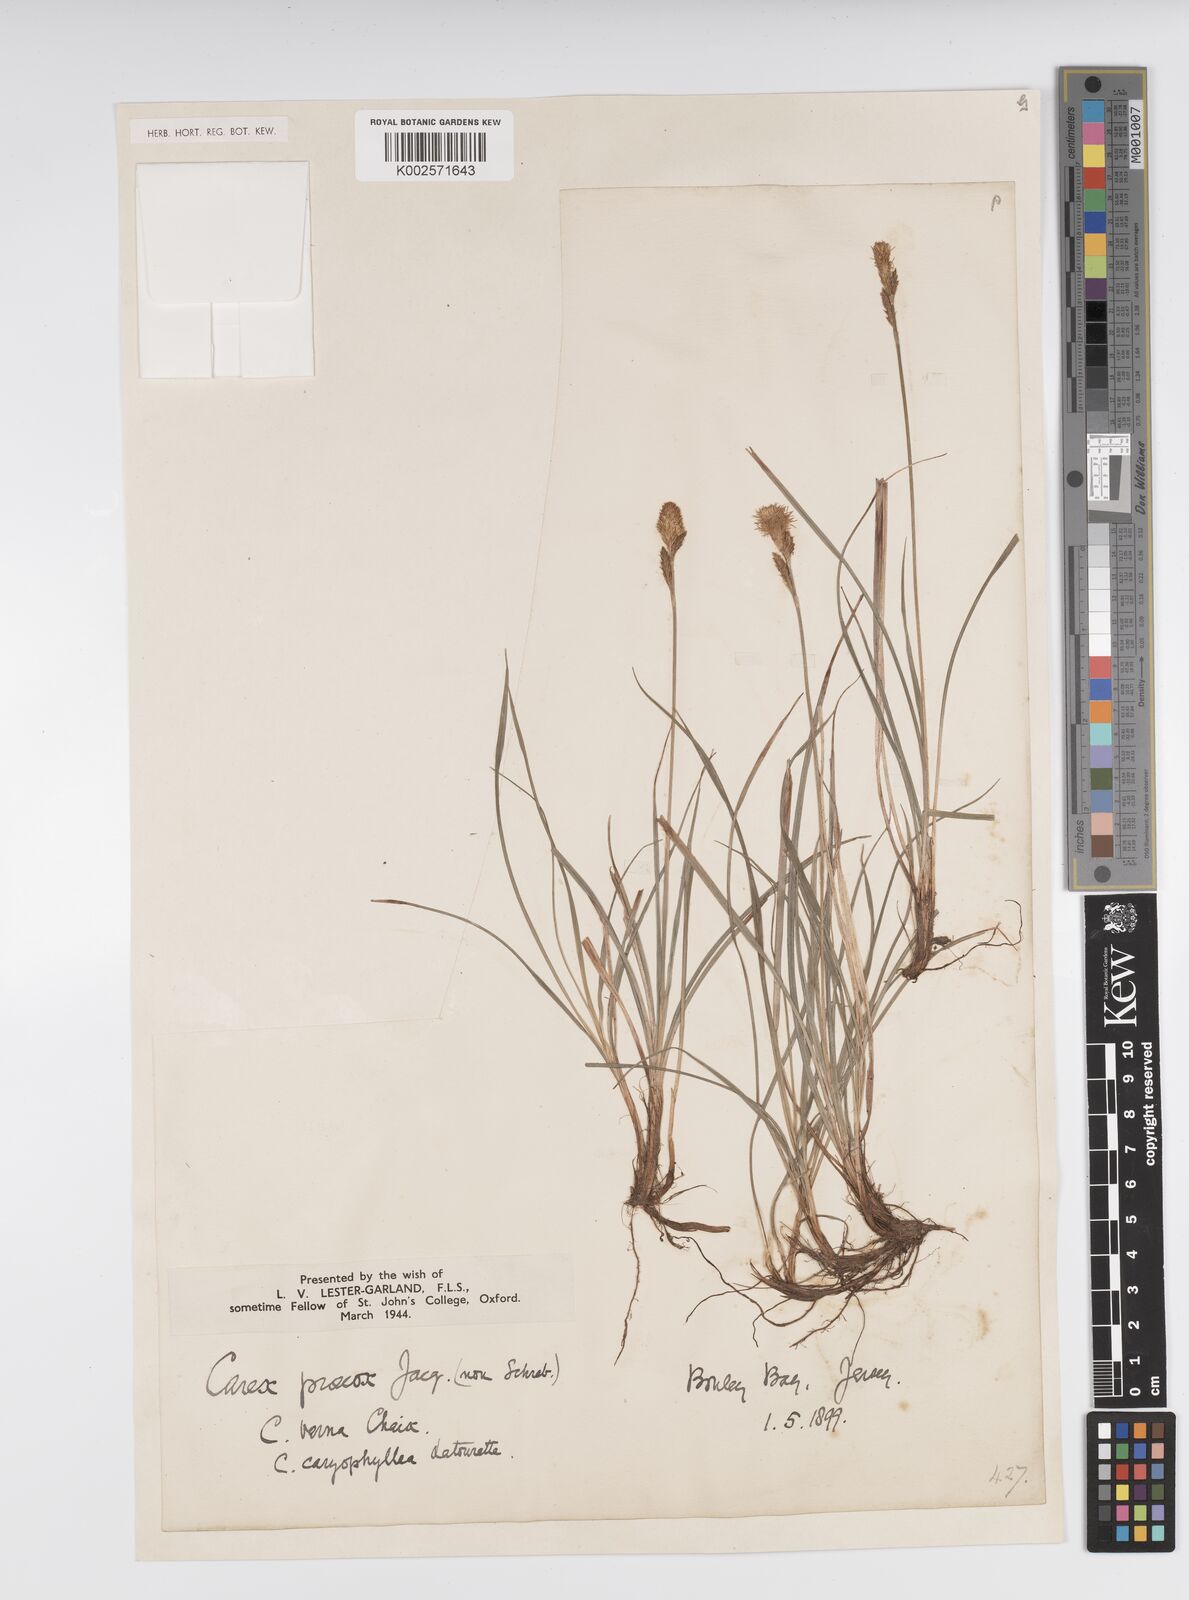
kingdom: Plantae
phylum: Tracheophyta
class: Liliopsida
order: Poales
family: Cyperaceae
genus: Carex
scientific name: Carex caryophyllea
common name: Spring sedge
